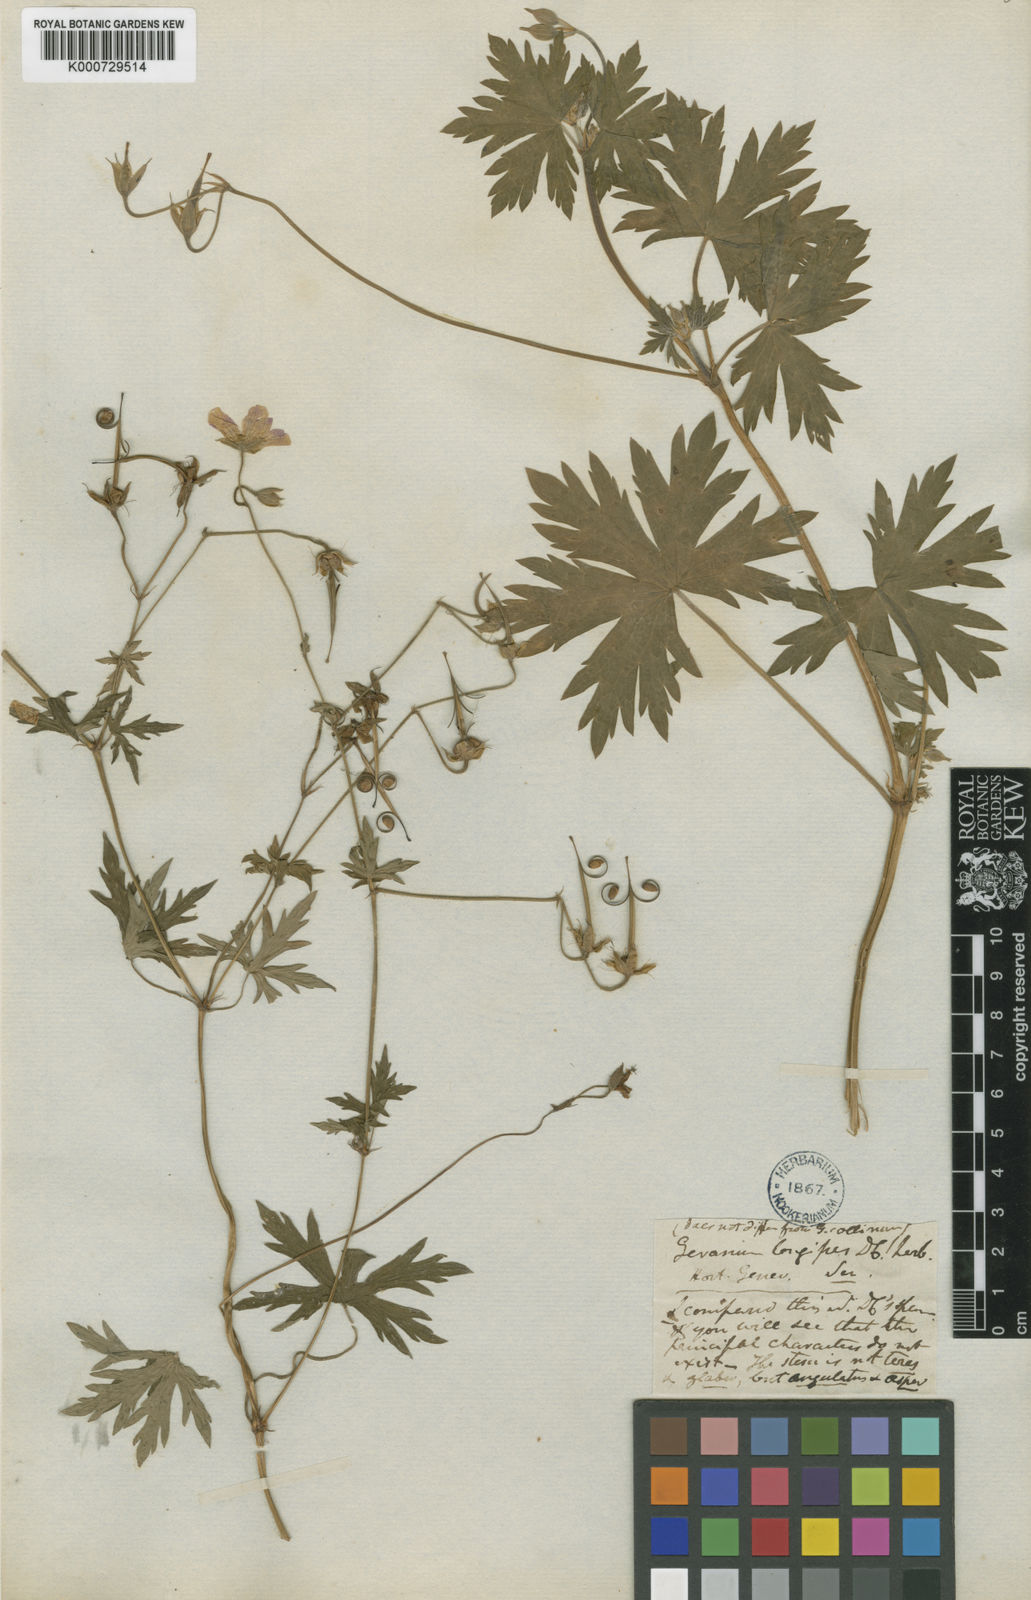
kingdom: Plantae
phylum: Tracheophyta
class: Magnoliopsida
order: Geraniales
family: Geraniaceae
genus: Geranium
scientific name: Geranium collinum
